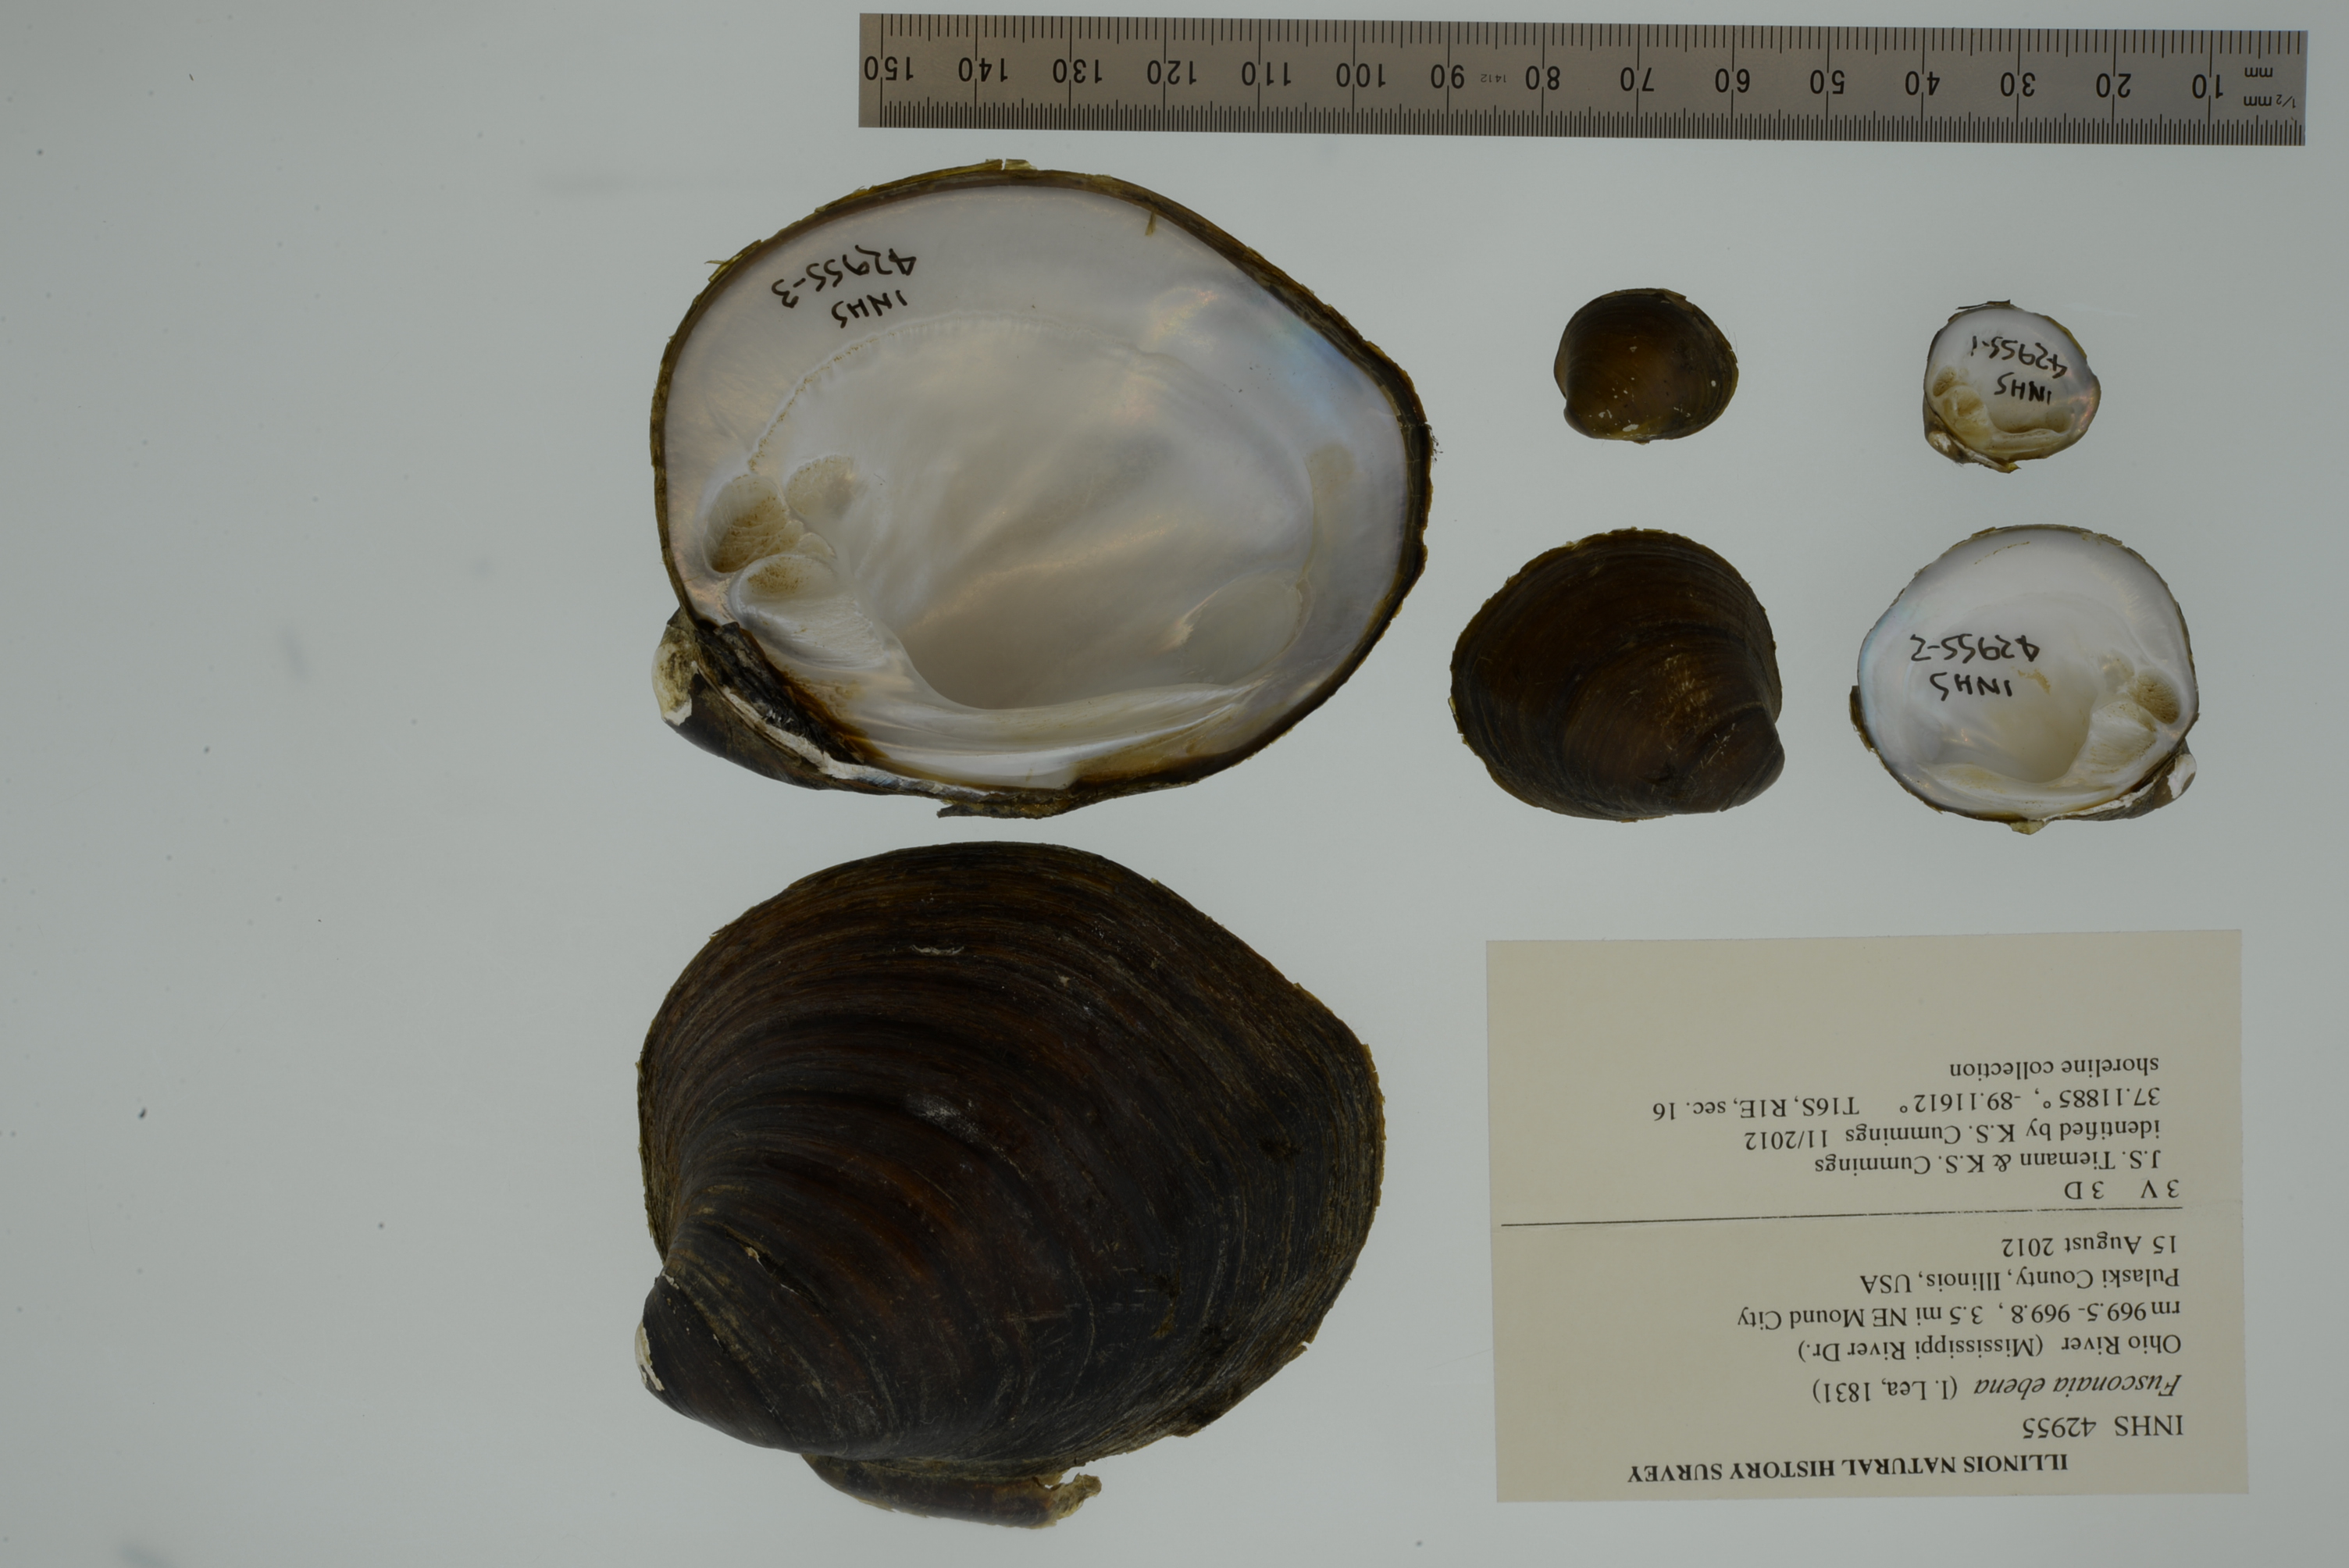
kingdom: Animalia
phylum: Mollusca
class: Bivalvia
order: Unionida
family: Unionidae
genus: Reginaia
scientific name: Reginaia ebenus
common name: Ebonyshell
